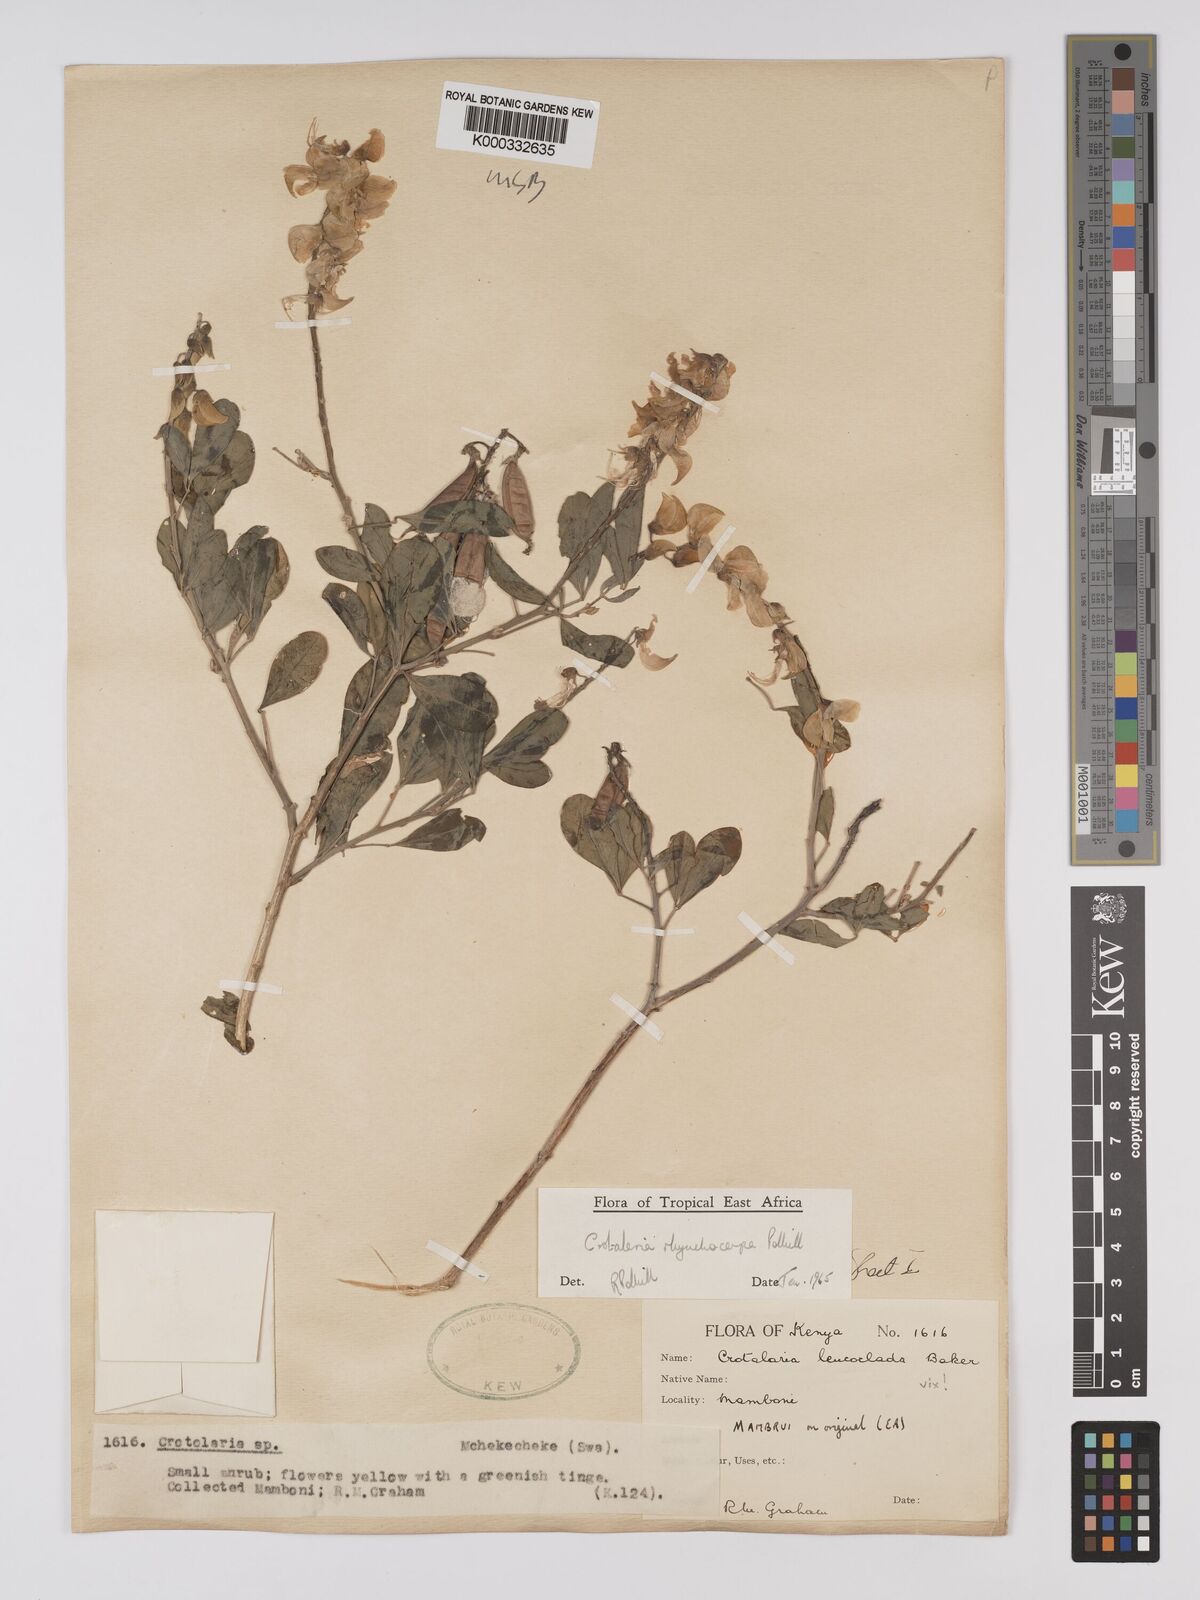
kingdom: Plantae
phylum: Tracheophyta
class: Magnoliopsida
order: Fabales
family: Fabaceae
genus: Crotalaria
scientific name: Crotalaria rhynchocarpa
